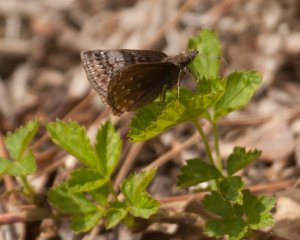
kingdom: Animalia
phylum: Arthropoda
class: Insecta
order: Lepidoptera
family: Hesperiidae
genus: Erynnis
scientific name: Erynnis icelus
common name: Dreamy Duskywing
